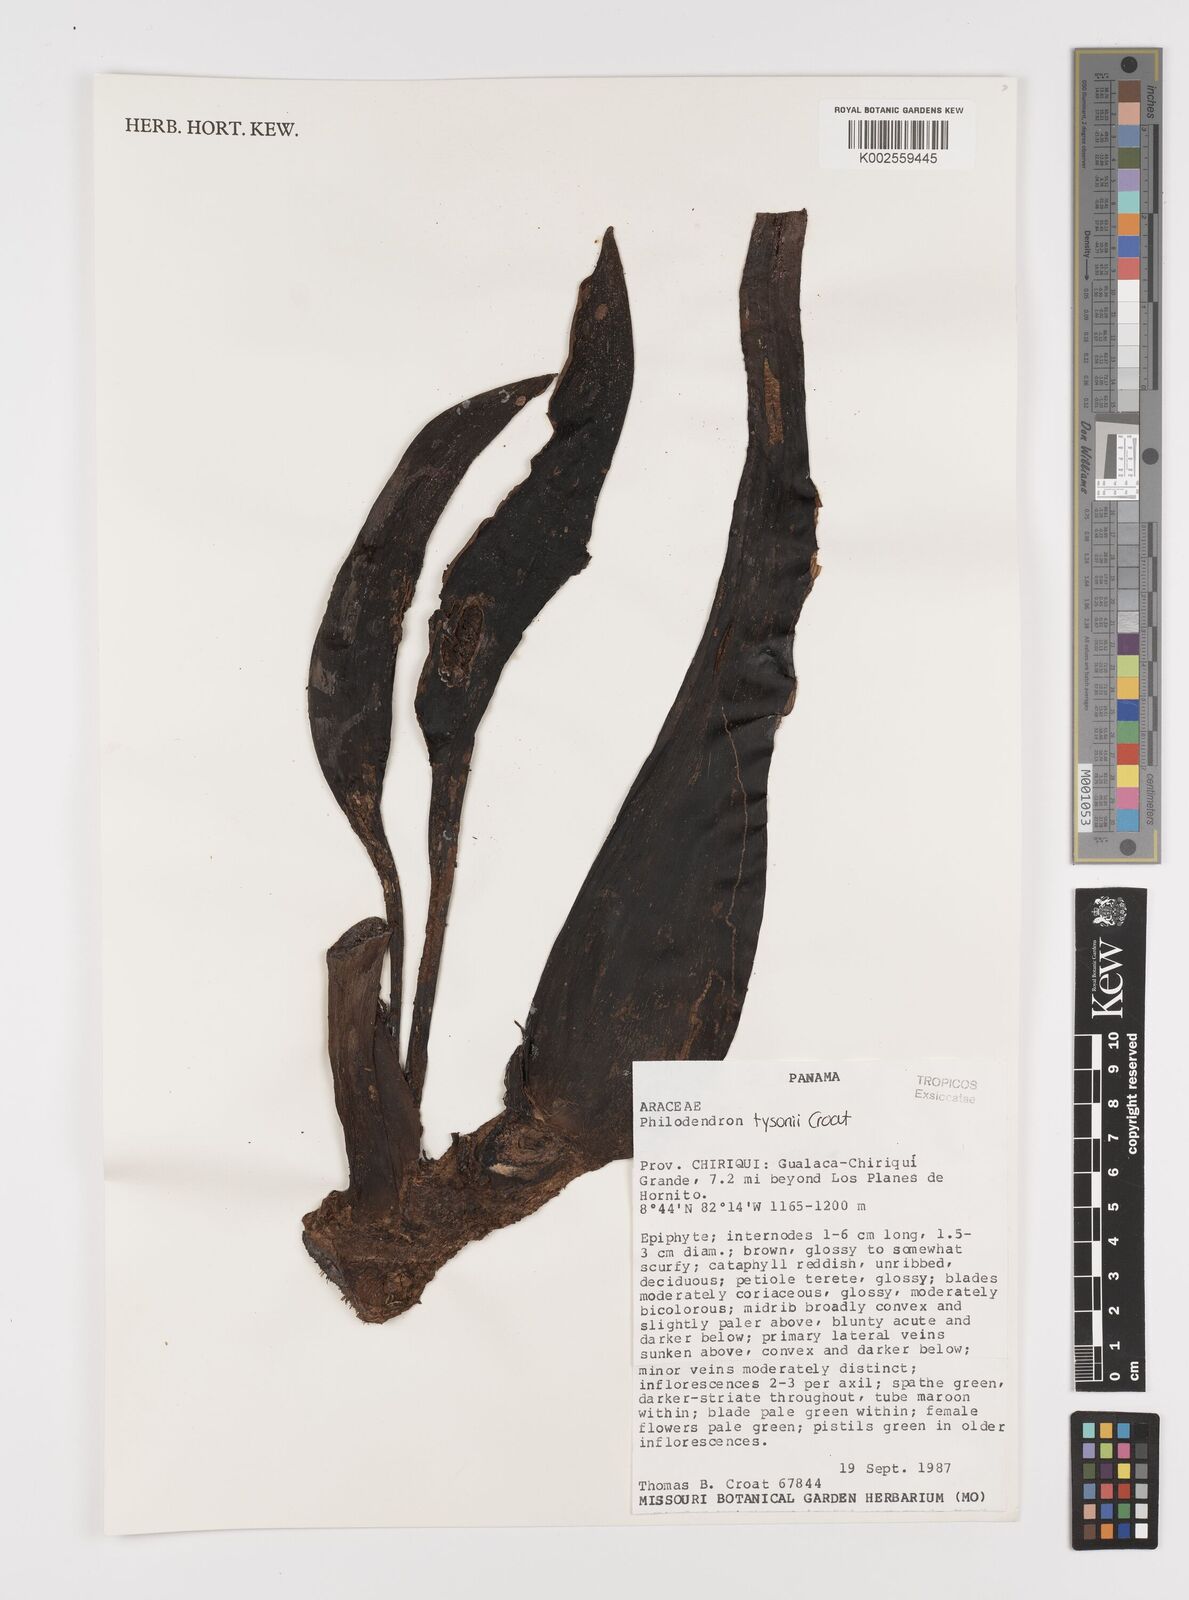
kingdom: Plantae
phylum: Tracheophyta
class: Liliopsida
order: Alismatales
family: Araceae
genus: Philodendron
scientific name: Philodendron tysonii
